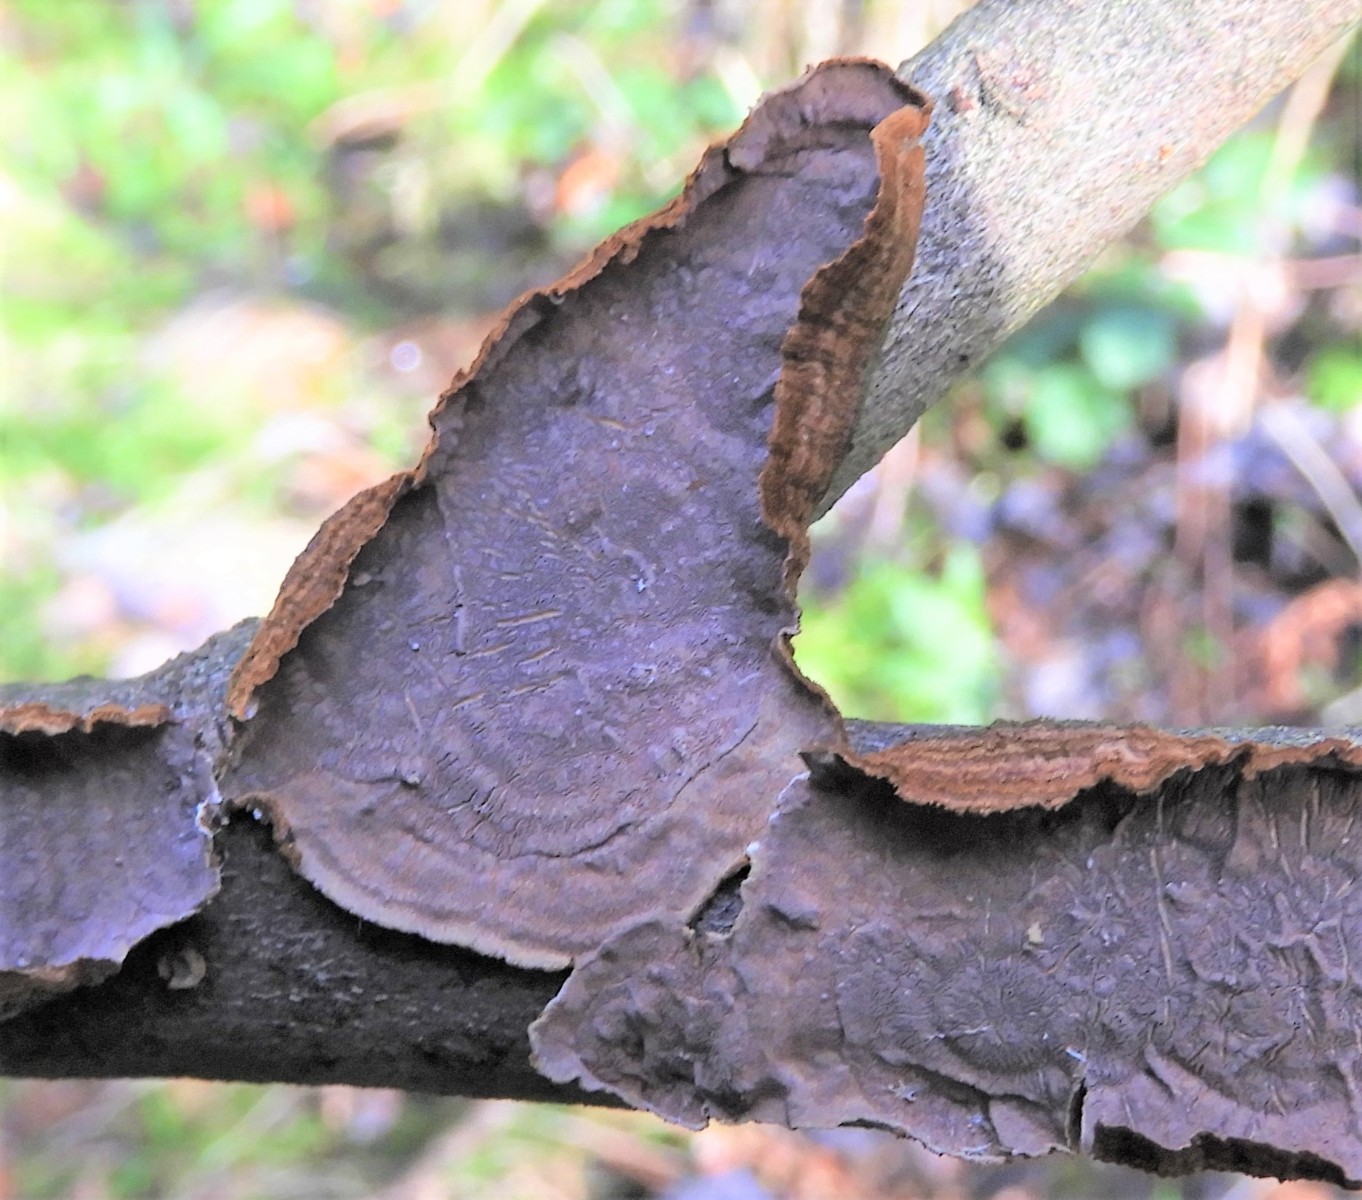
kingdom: Fungi
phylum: Basidiomycota
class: Agaricomycetes
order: Hymenochaetales
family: Hymenochaetaceae
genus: Hydnoporia
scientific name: Hydnoporia tabacina
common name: tobaksbrun ruslædersvamp
